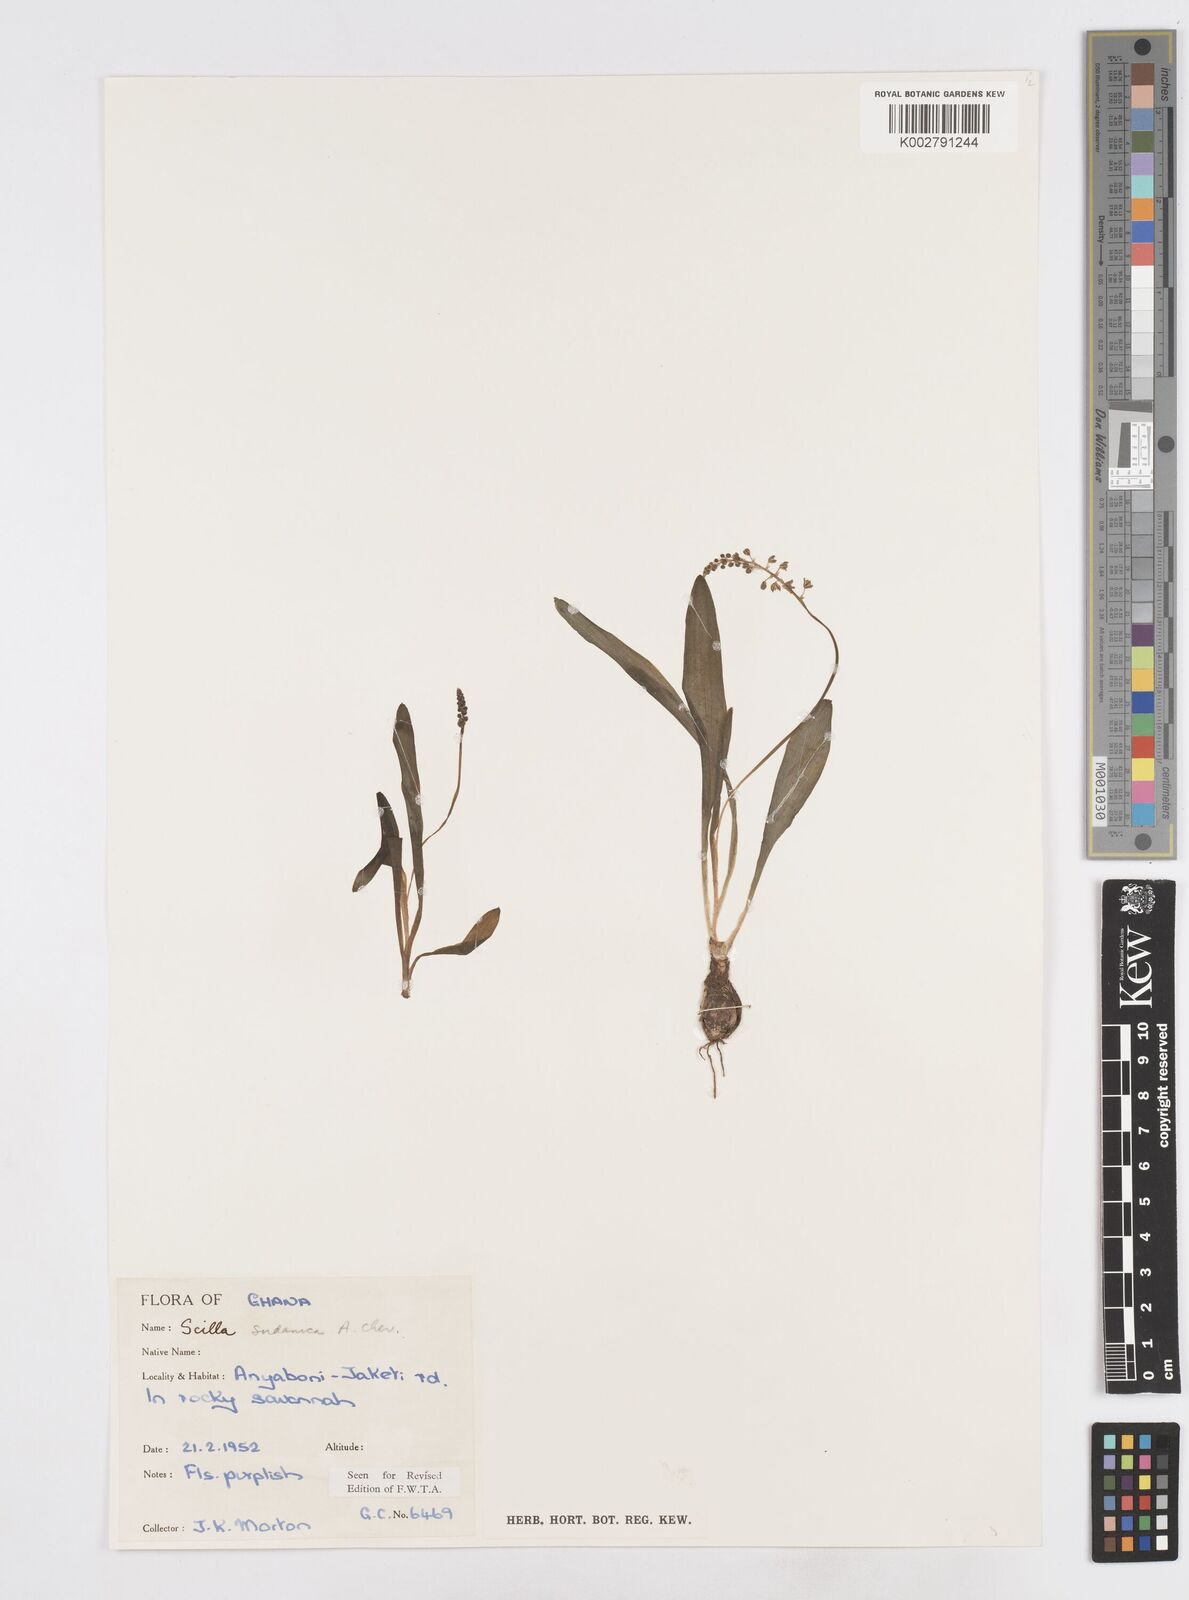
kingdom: Plantae
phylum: Tracheophyta
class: Liliopsida
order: Asparagales
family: Asparagaceae
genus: Ledebouria
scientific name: Ledebouria sudanica
